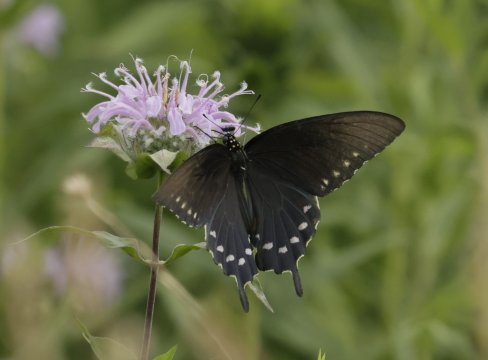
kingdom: Animalia
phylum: Arthropoda
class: Insecta
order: Lepidoptera
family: Papilionidae
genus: Battus
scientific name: Battus philenor
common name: Pipevine Swallowtail
